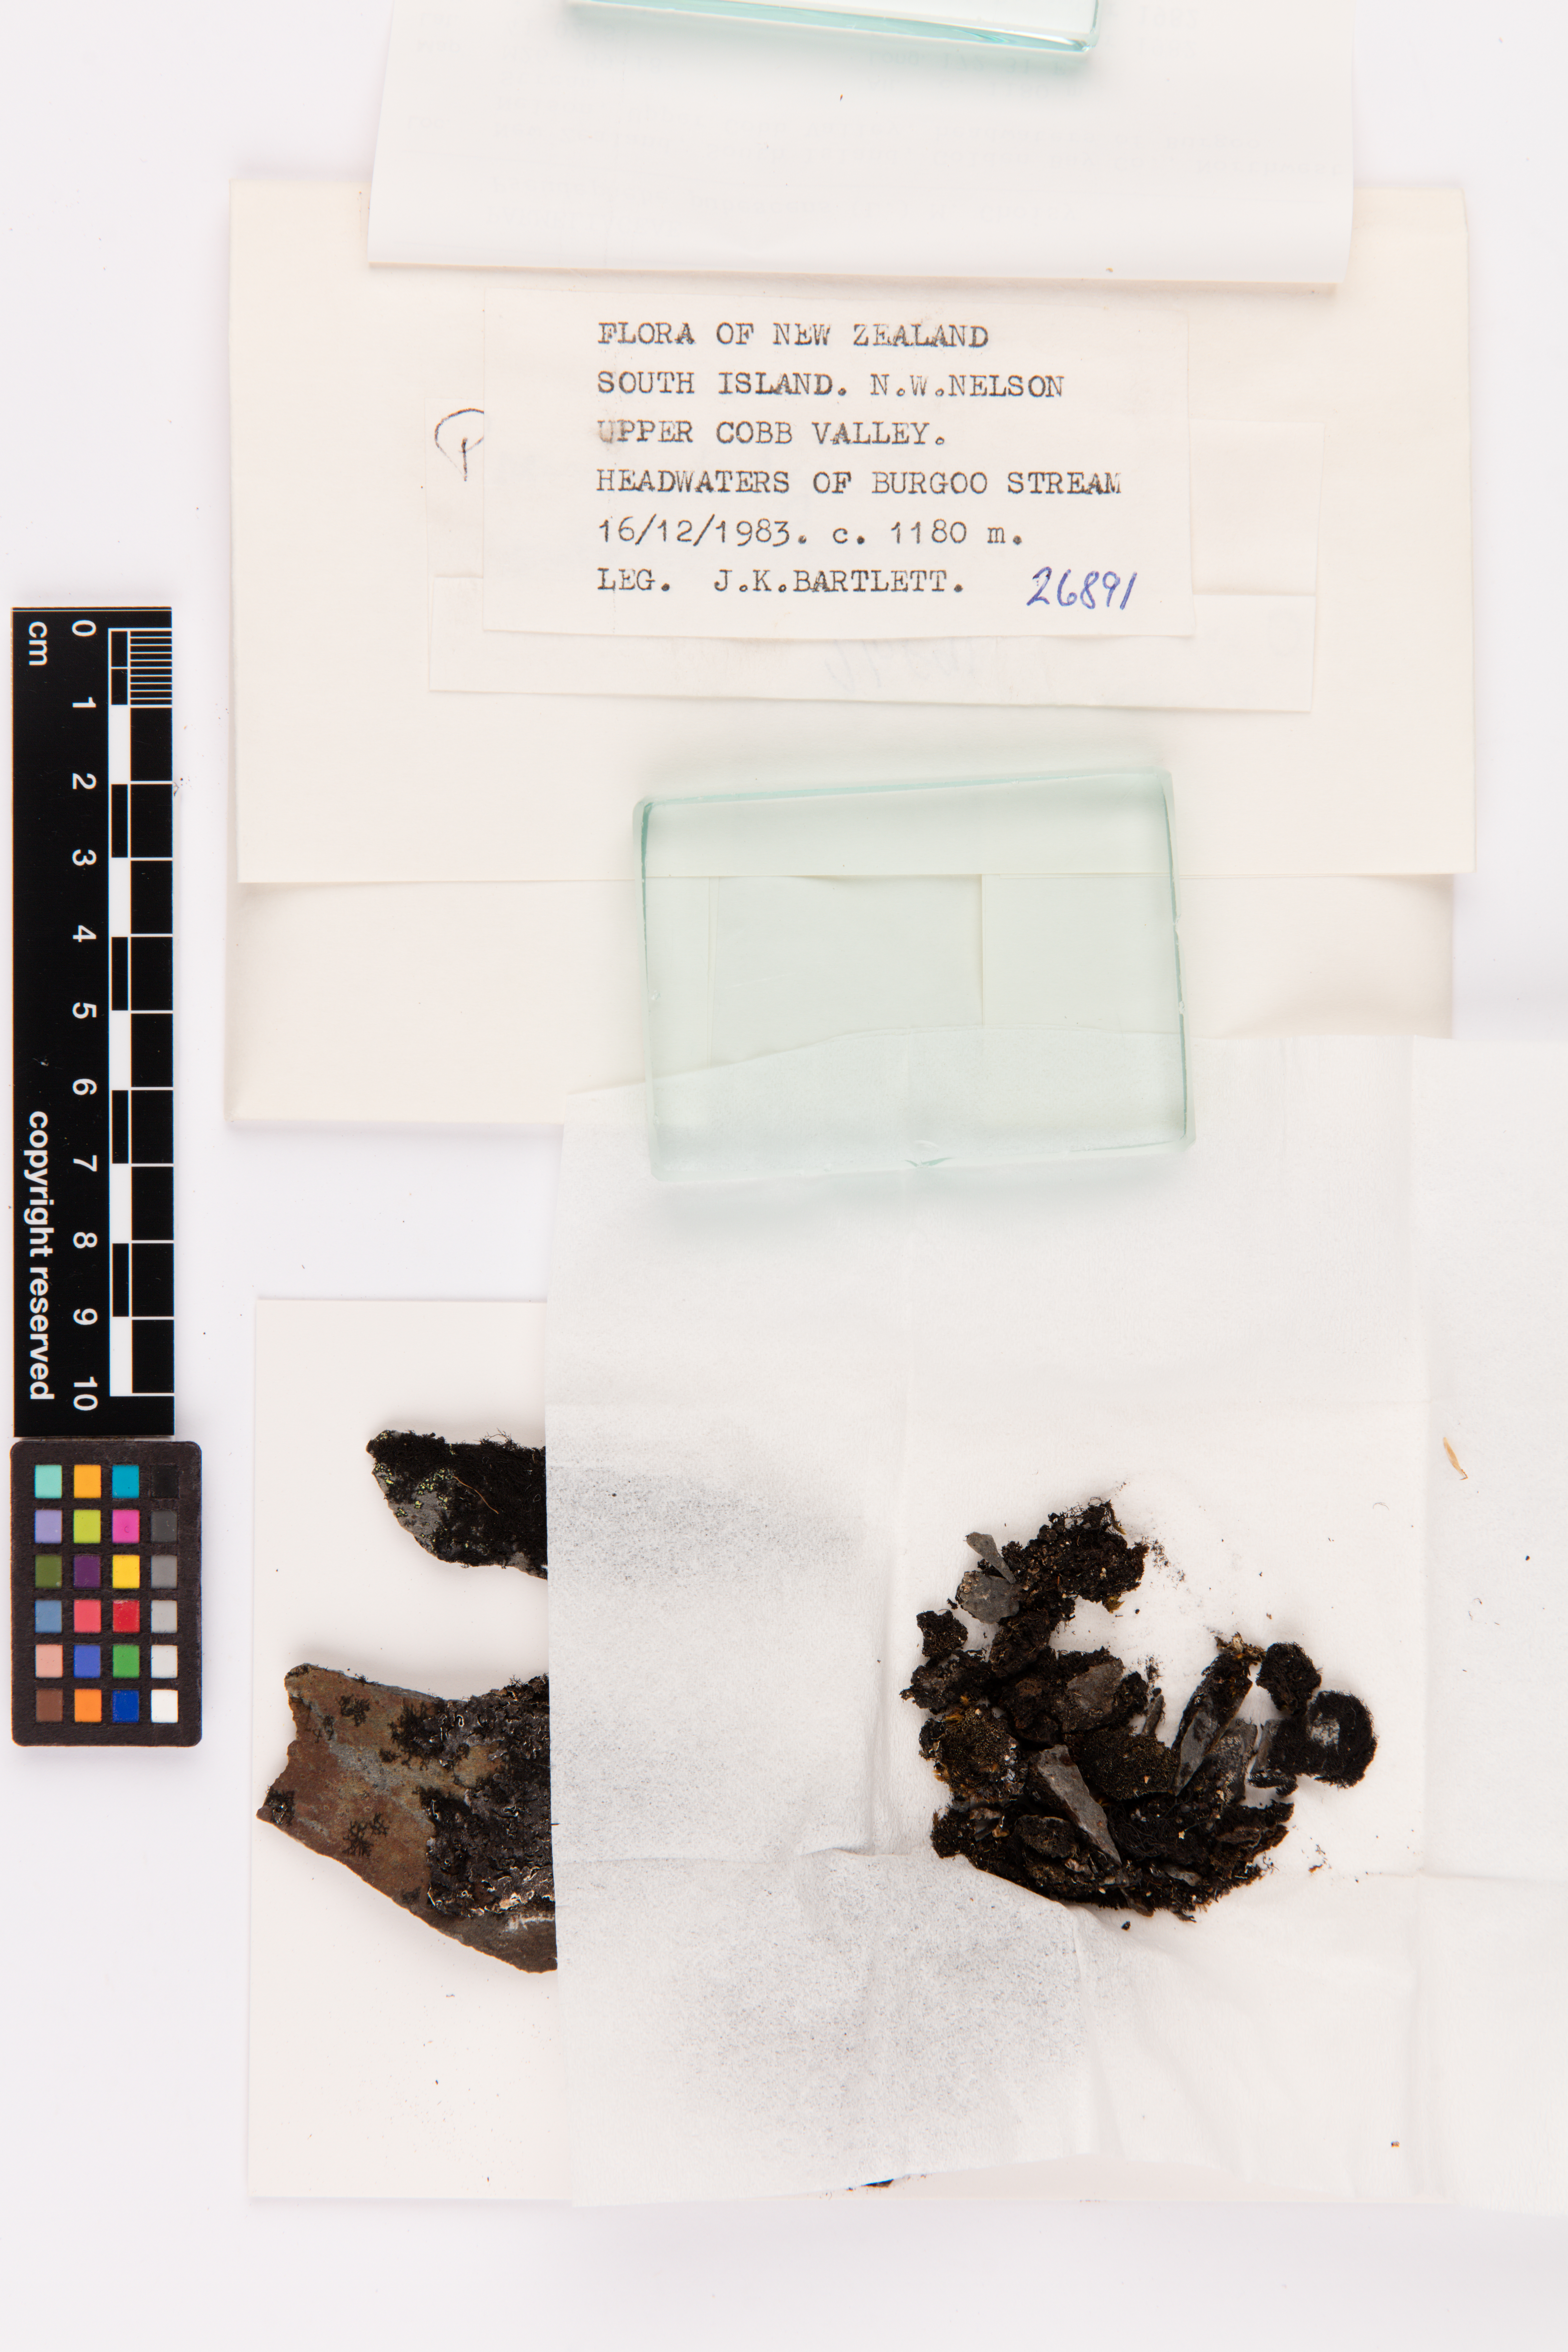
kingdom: Fungi
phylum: Ascomycota
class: Lecanoromycetes
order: Lecanorales
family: Parmeliaceae
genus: Pseudephebe
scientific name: Pseudephebe pubescens
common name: Fine rockwool lichen
